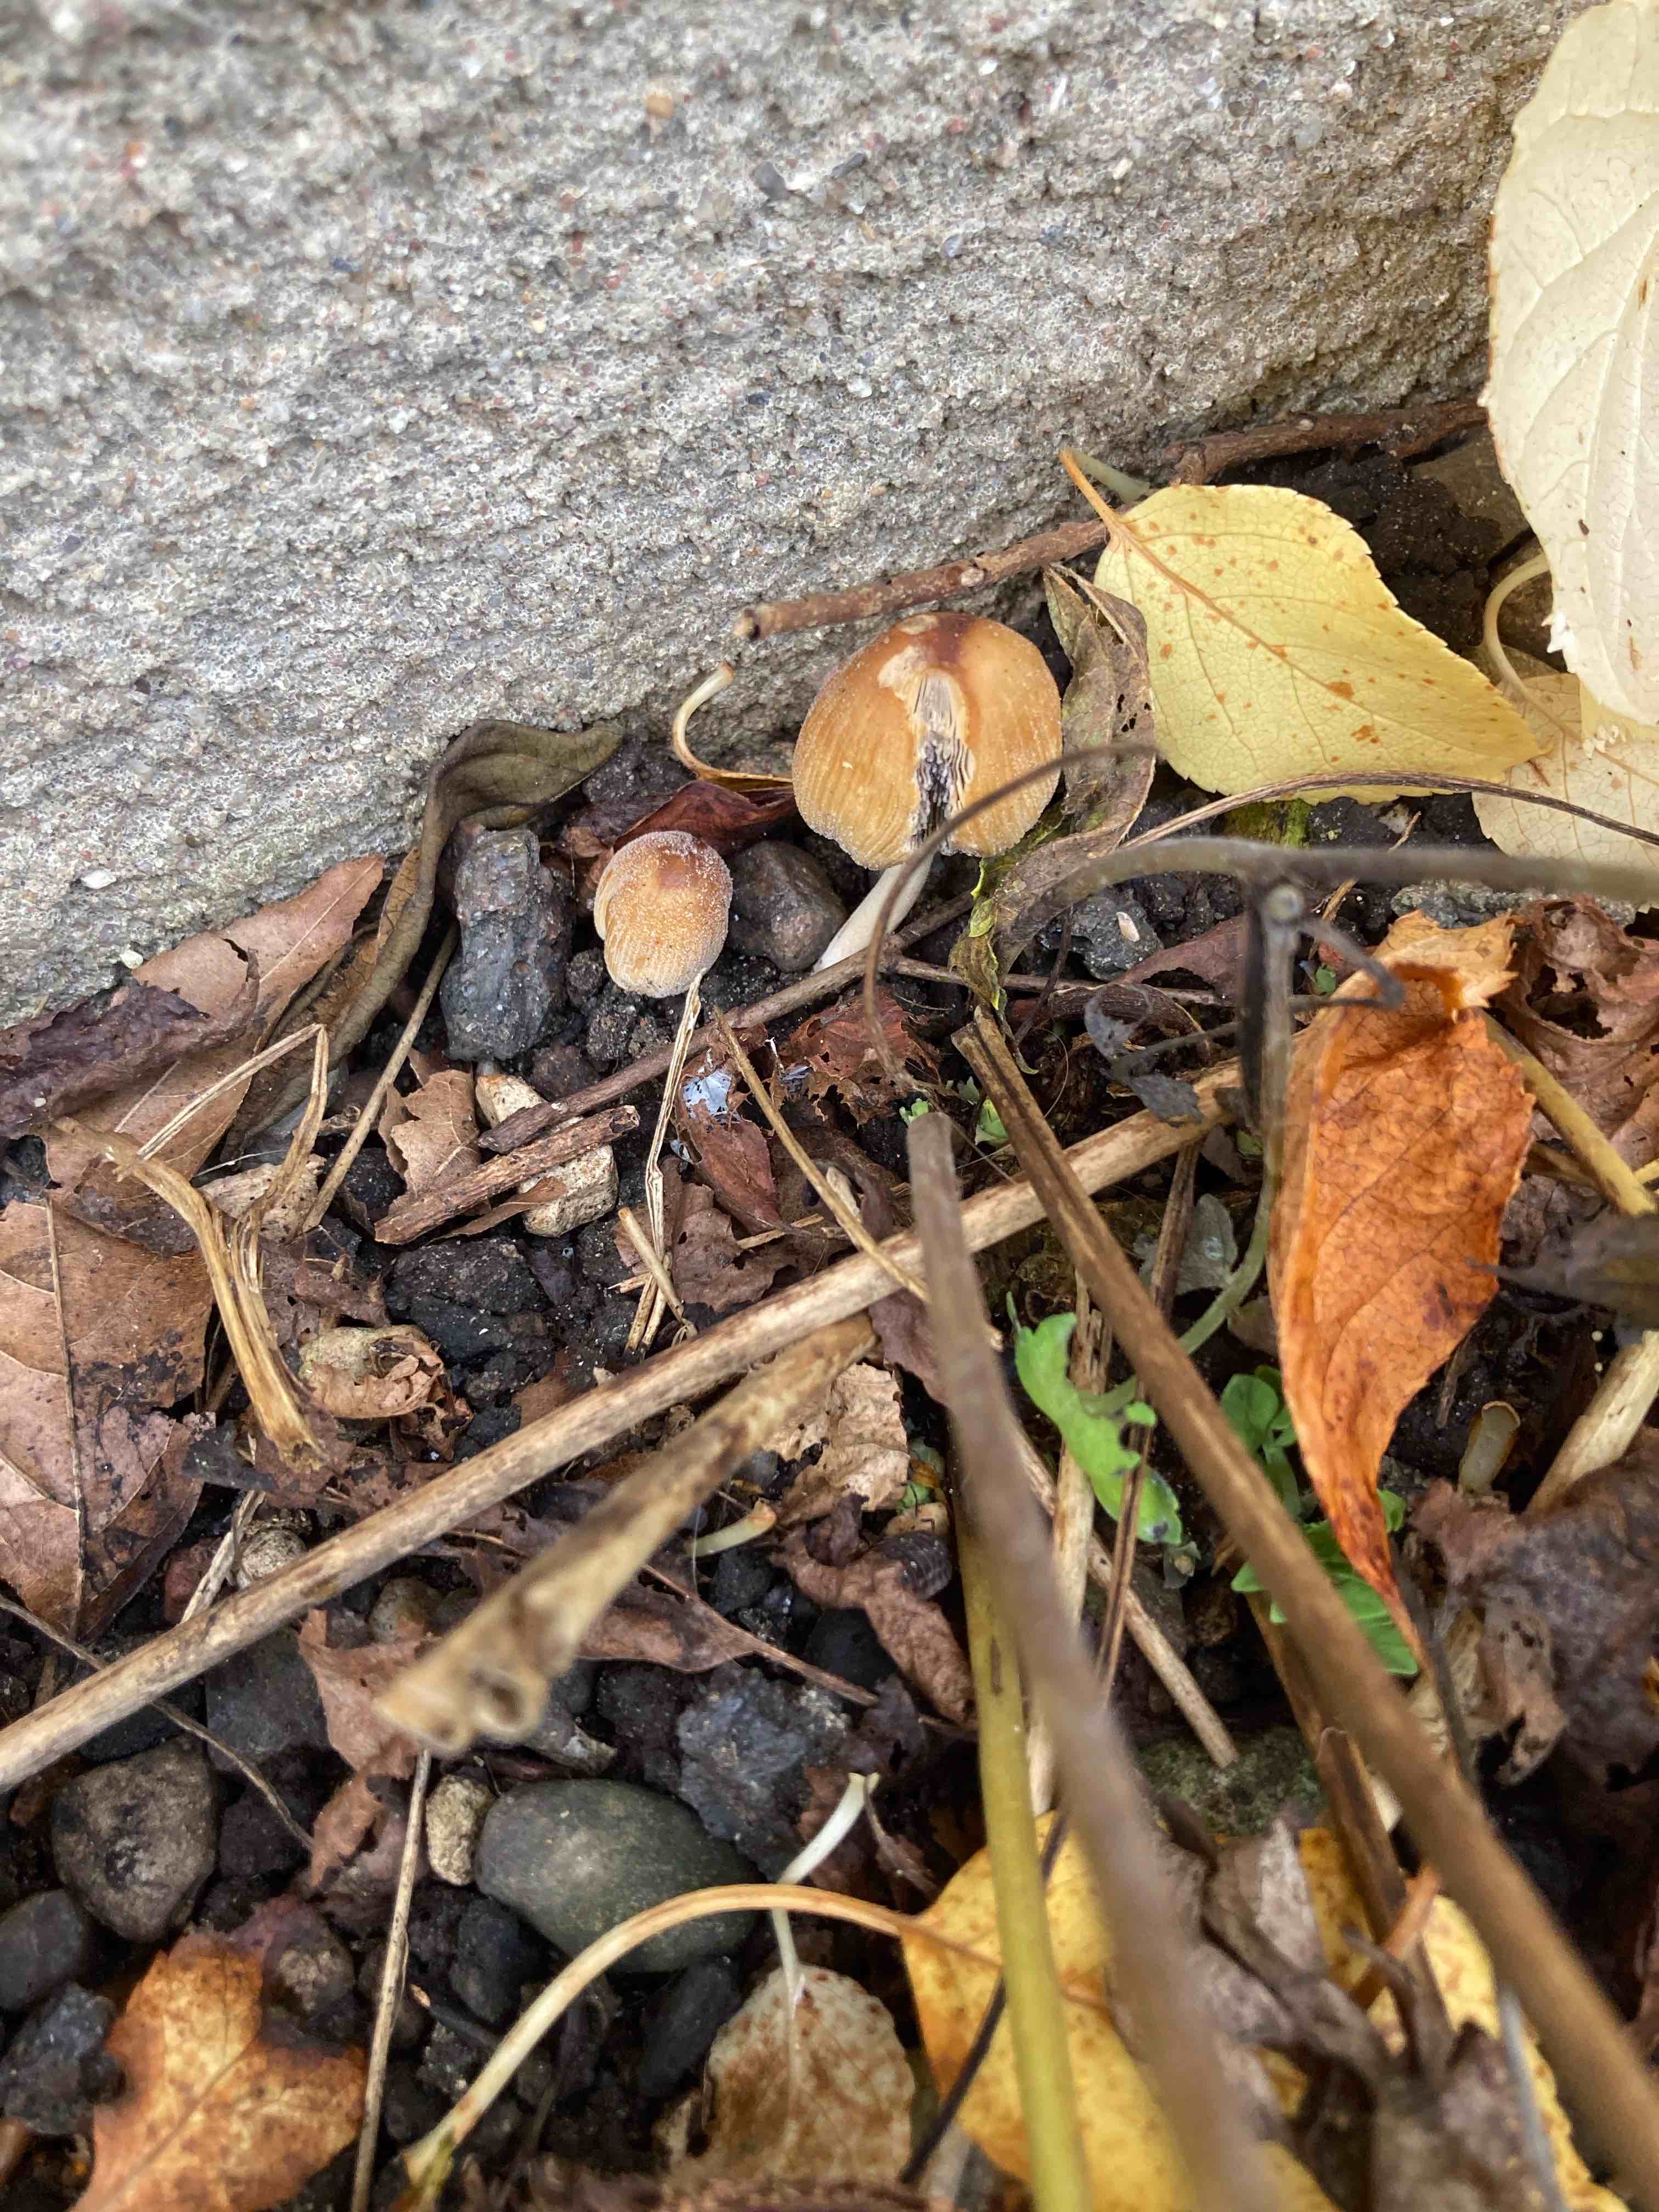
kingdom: Fungi
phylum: Basidiomycota
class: Agaricomycetes
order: Agaricales
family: Psathyrellaceae
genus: Coprinellus
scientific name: Coprinellus micaceus
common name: glimmer-blækhat
